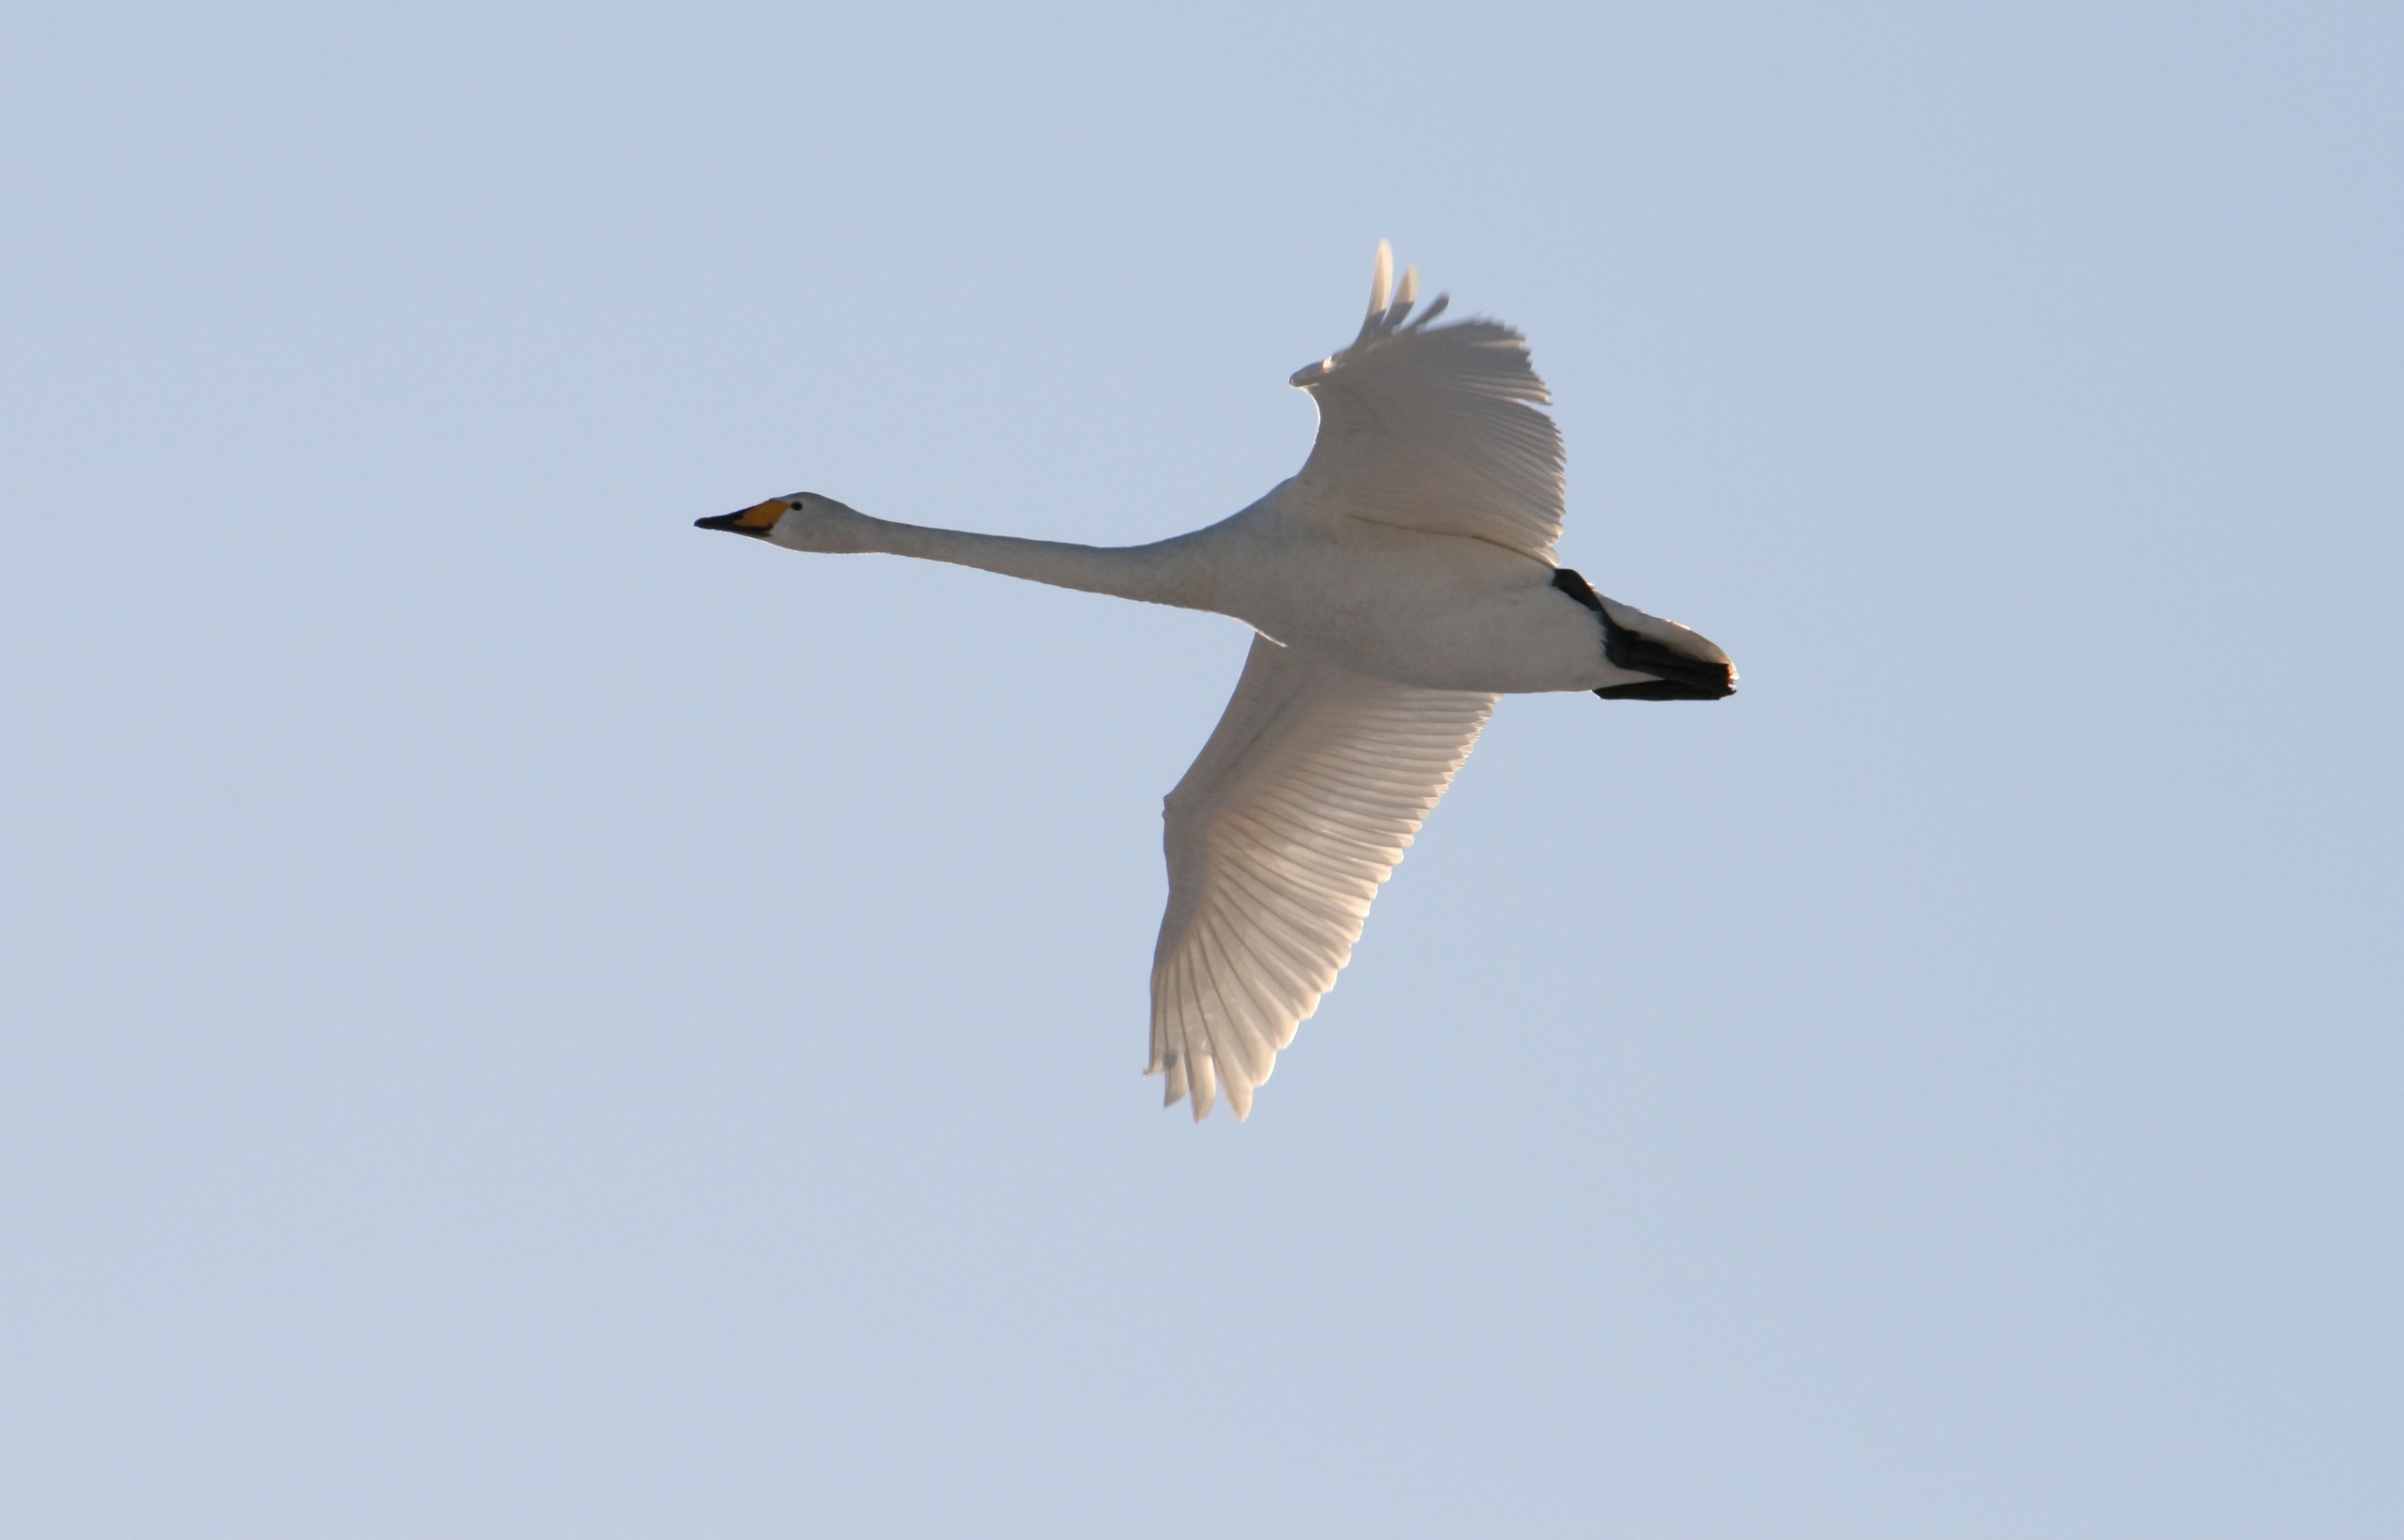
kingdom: Animalia
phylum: Chordata
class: Aves
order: Anseriformes
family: Anatidae
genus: Cygnus
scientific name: Cygnus cygnus
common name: Sangsvane
